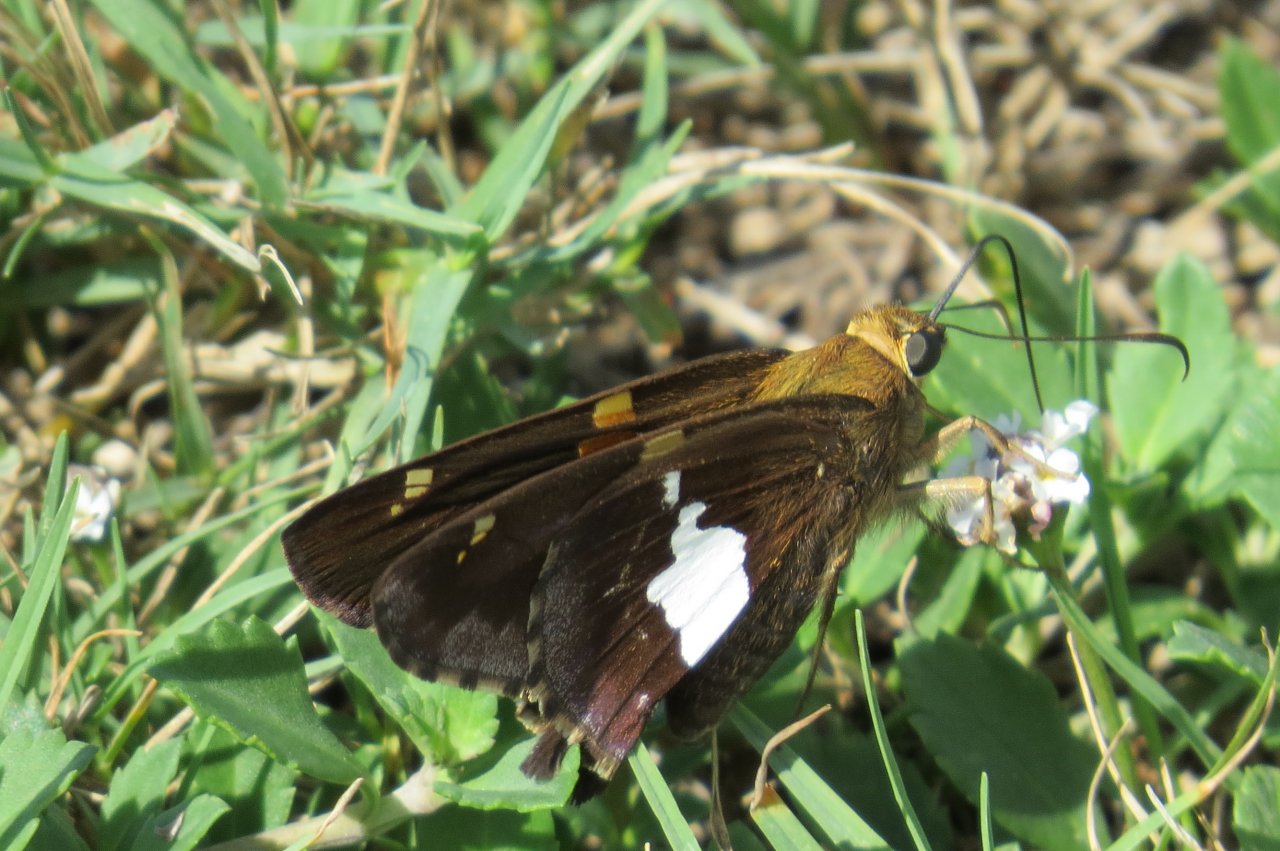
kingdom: Animalia
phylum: Arthropoda
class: Insecta
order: Lepidoptera
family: Hesperiidae
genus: Epargyreus
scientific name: Epargyreus clarus
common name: Silver-spotted Skipper
